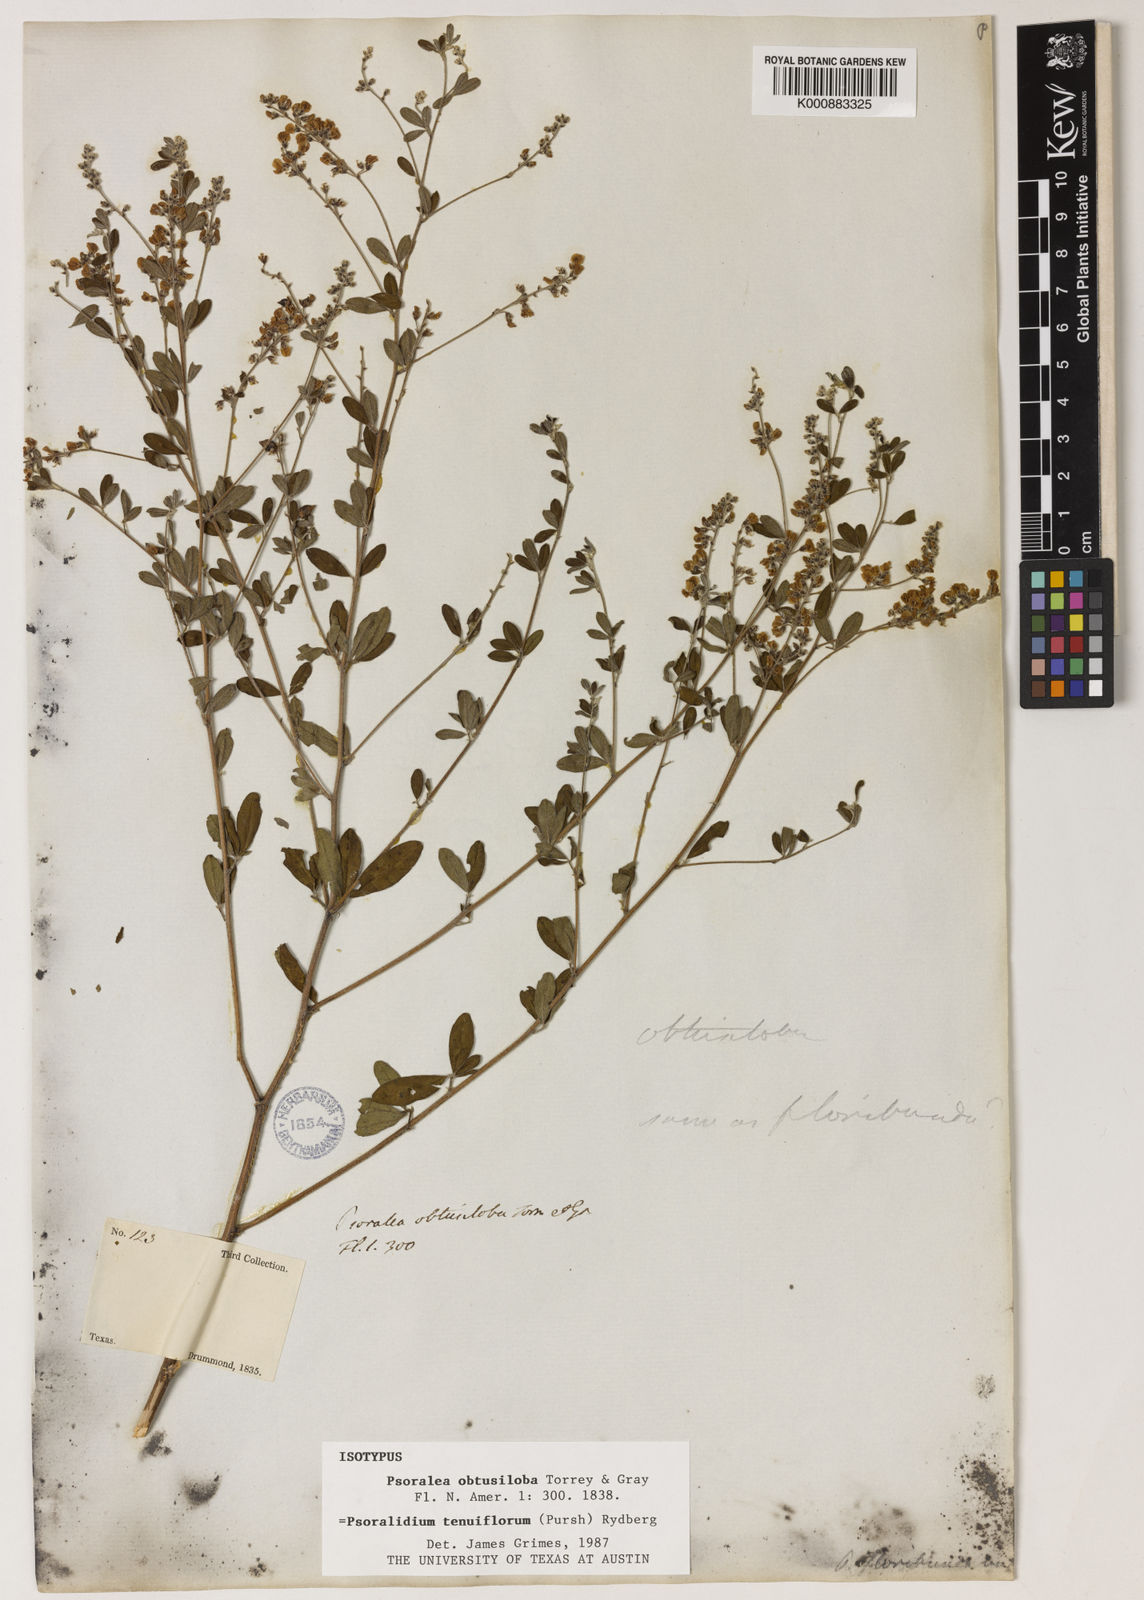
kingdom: Plantae
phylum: Tracheophyta
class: Magnoliopsida
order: Fabales
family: Fabaceae
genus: Pediomelum
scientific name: Pediomelum tenuiflorum
